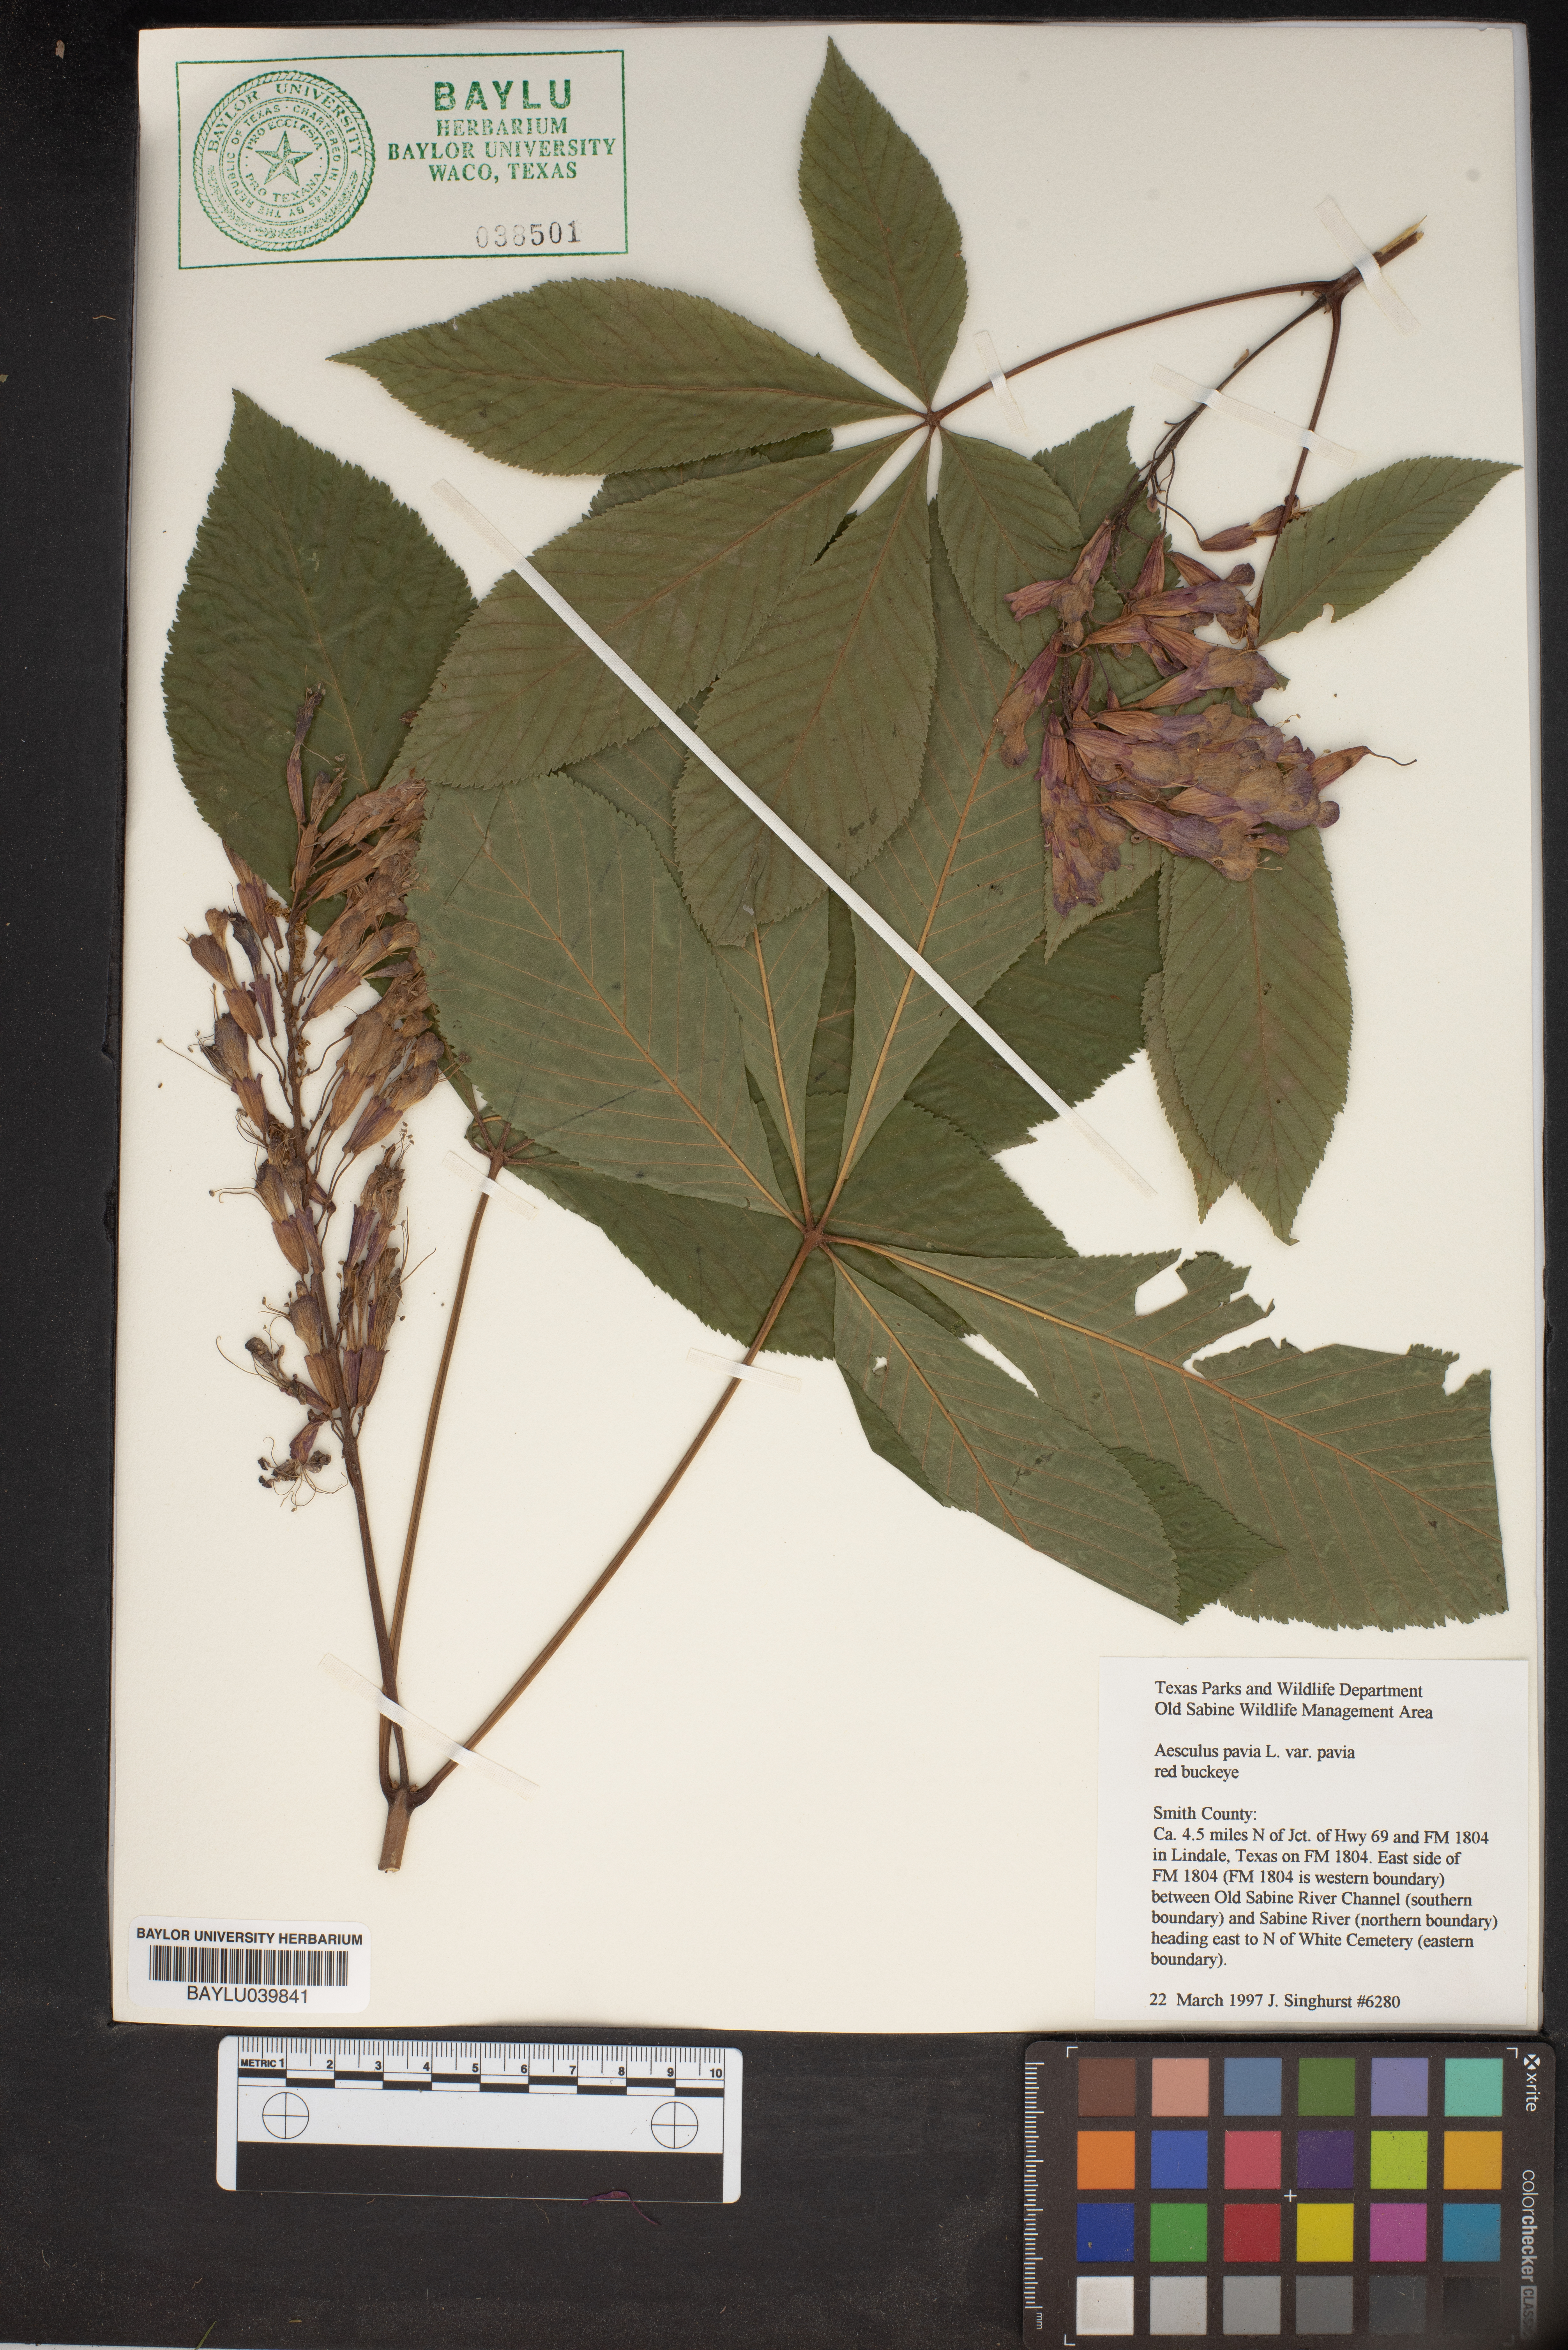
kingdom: Plantae
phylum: Tracheophyta
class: Magnoliopsida
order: Sapindales
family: Sapindaceae
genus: Aesculus
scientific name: Aesculus pavia
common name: Red buckeye
